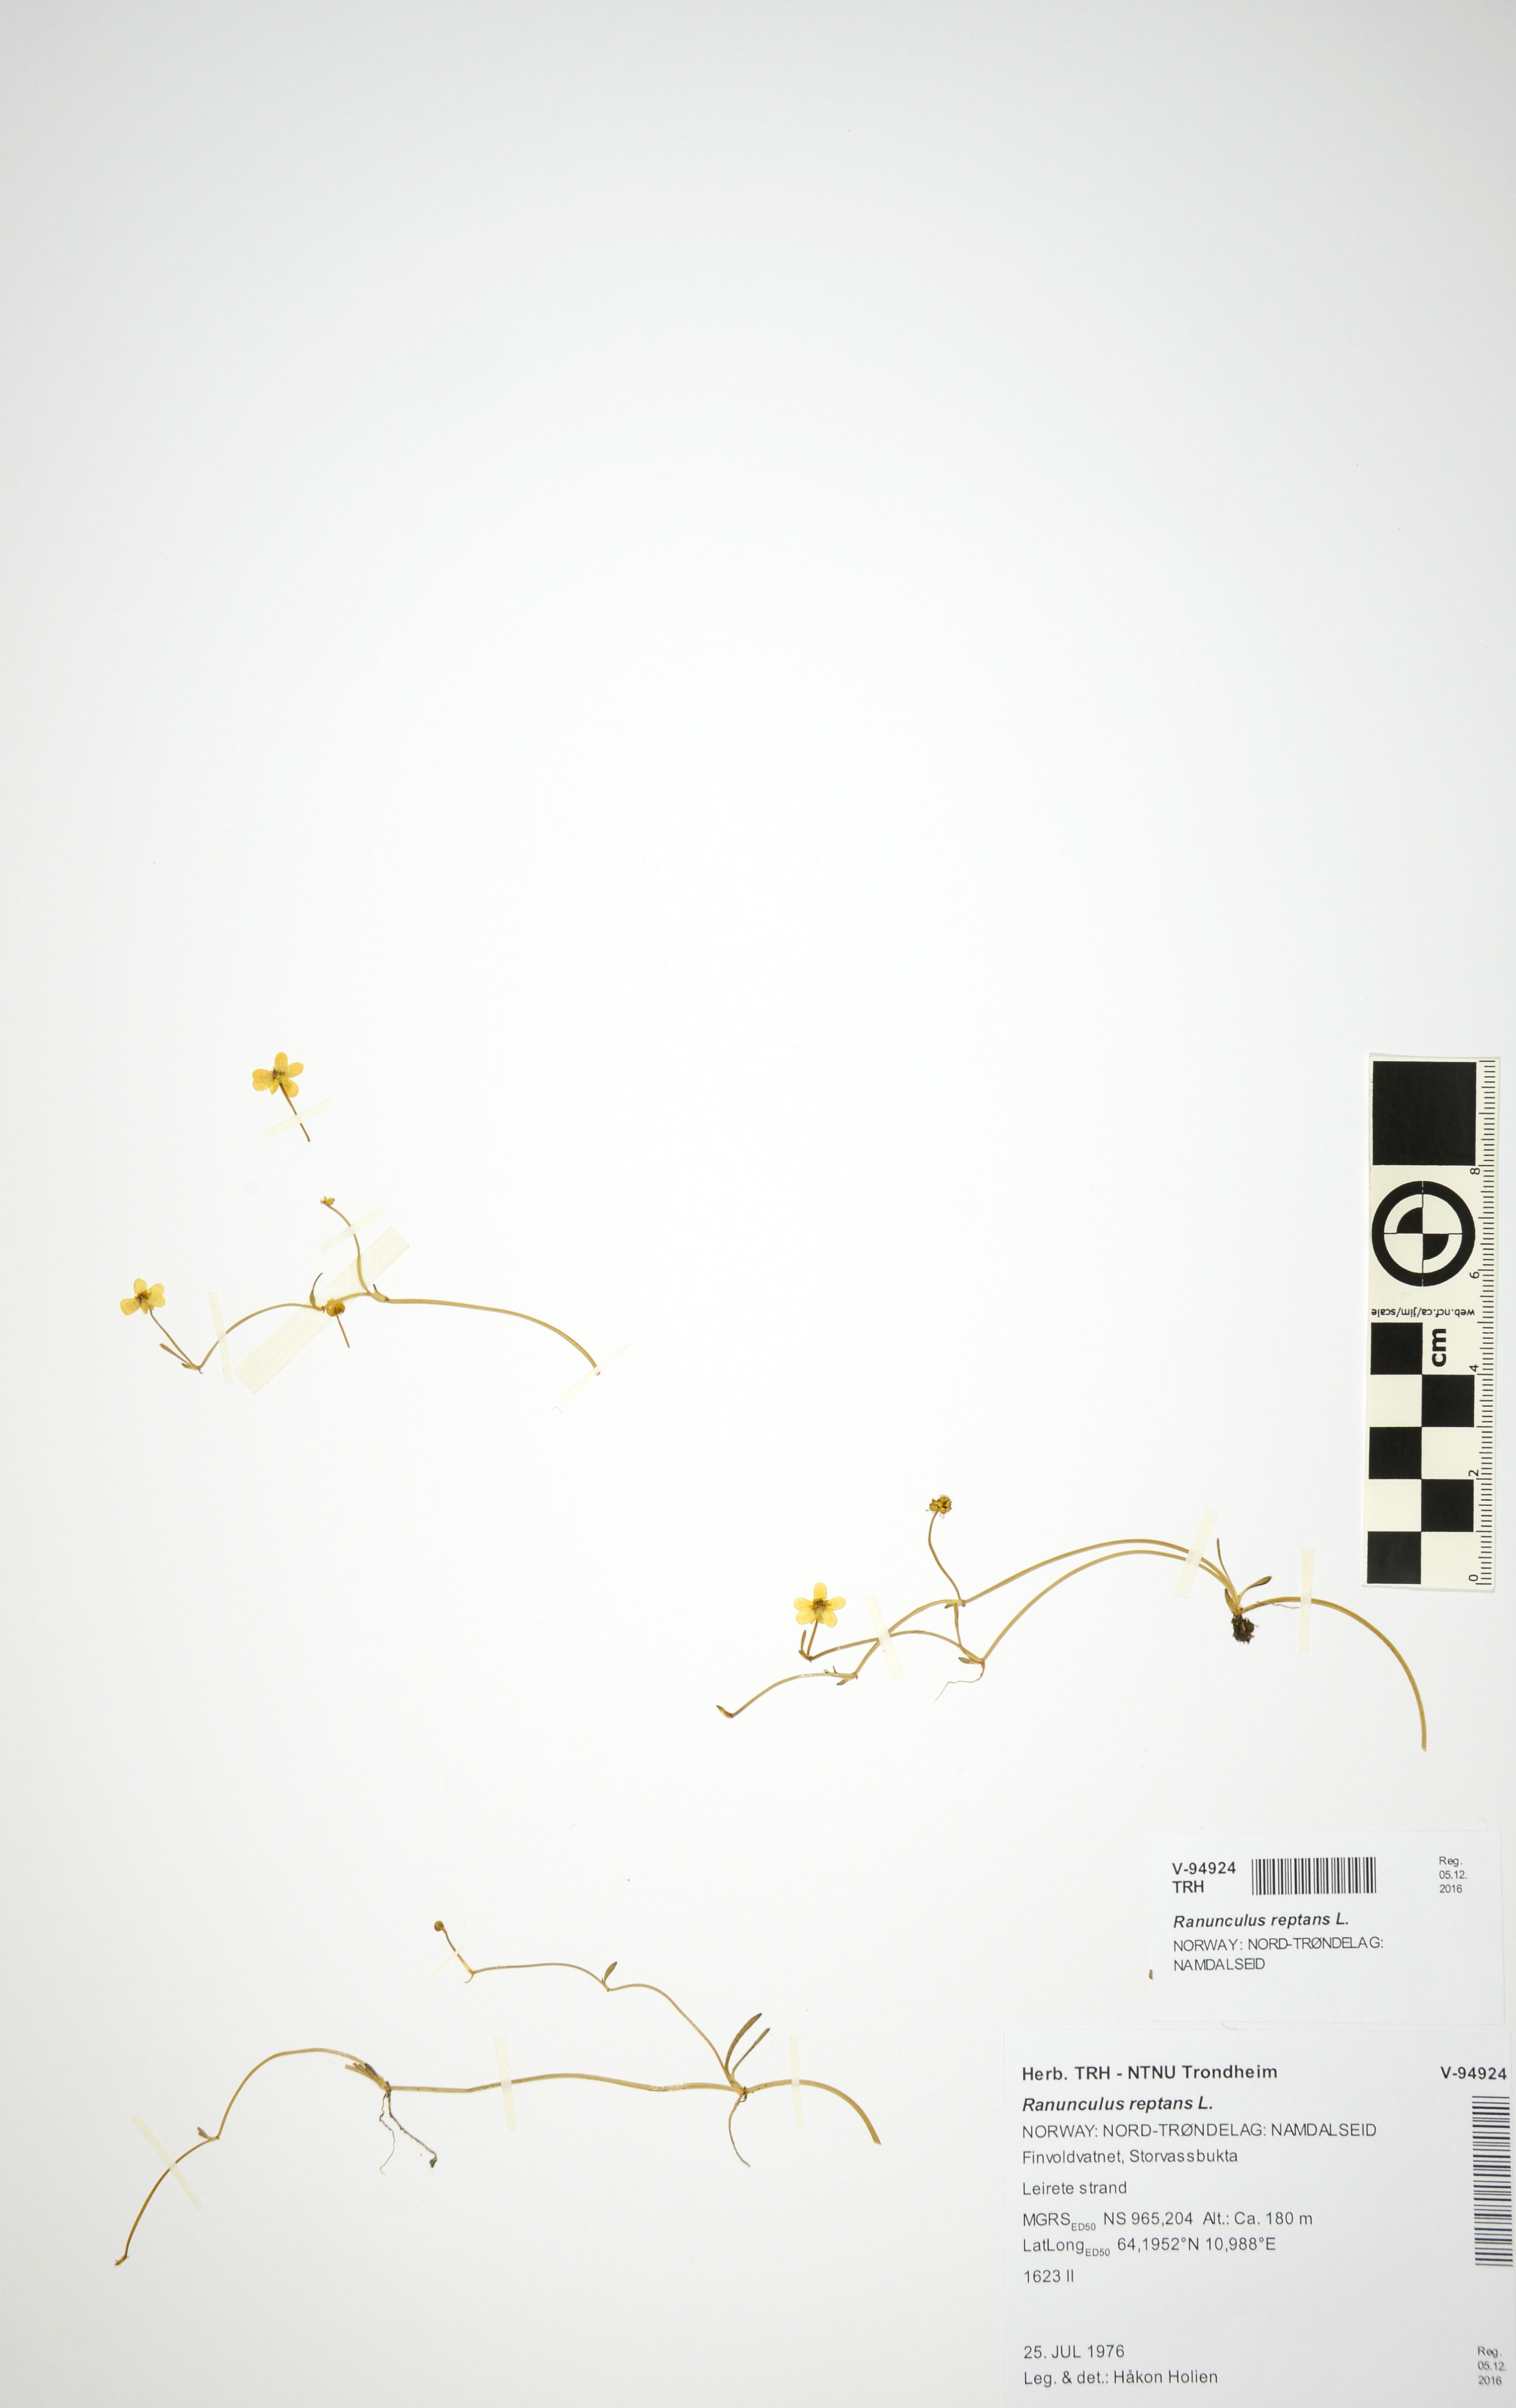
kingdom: Plantae
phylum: Tracheophyta
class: Magnoliopsida
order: Ranunculales
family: Ranunculaceae
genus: Ranunculus
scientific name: Ranunculus reptans
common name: Creeping spearwort
